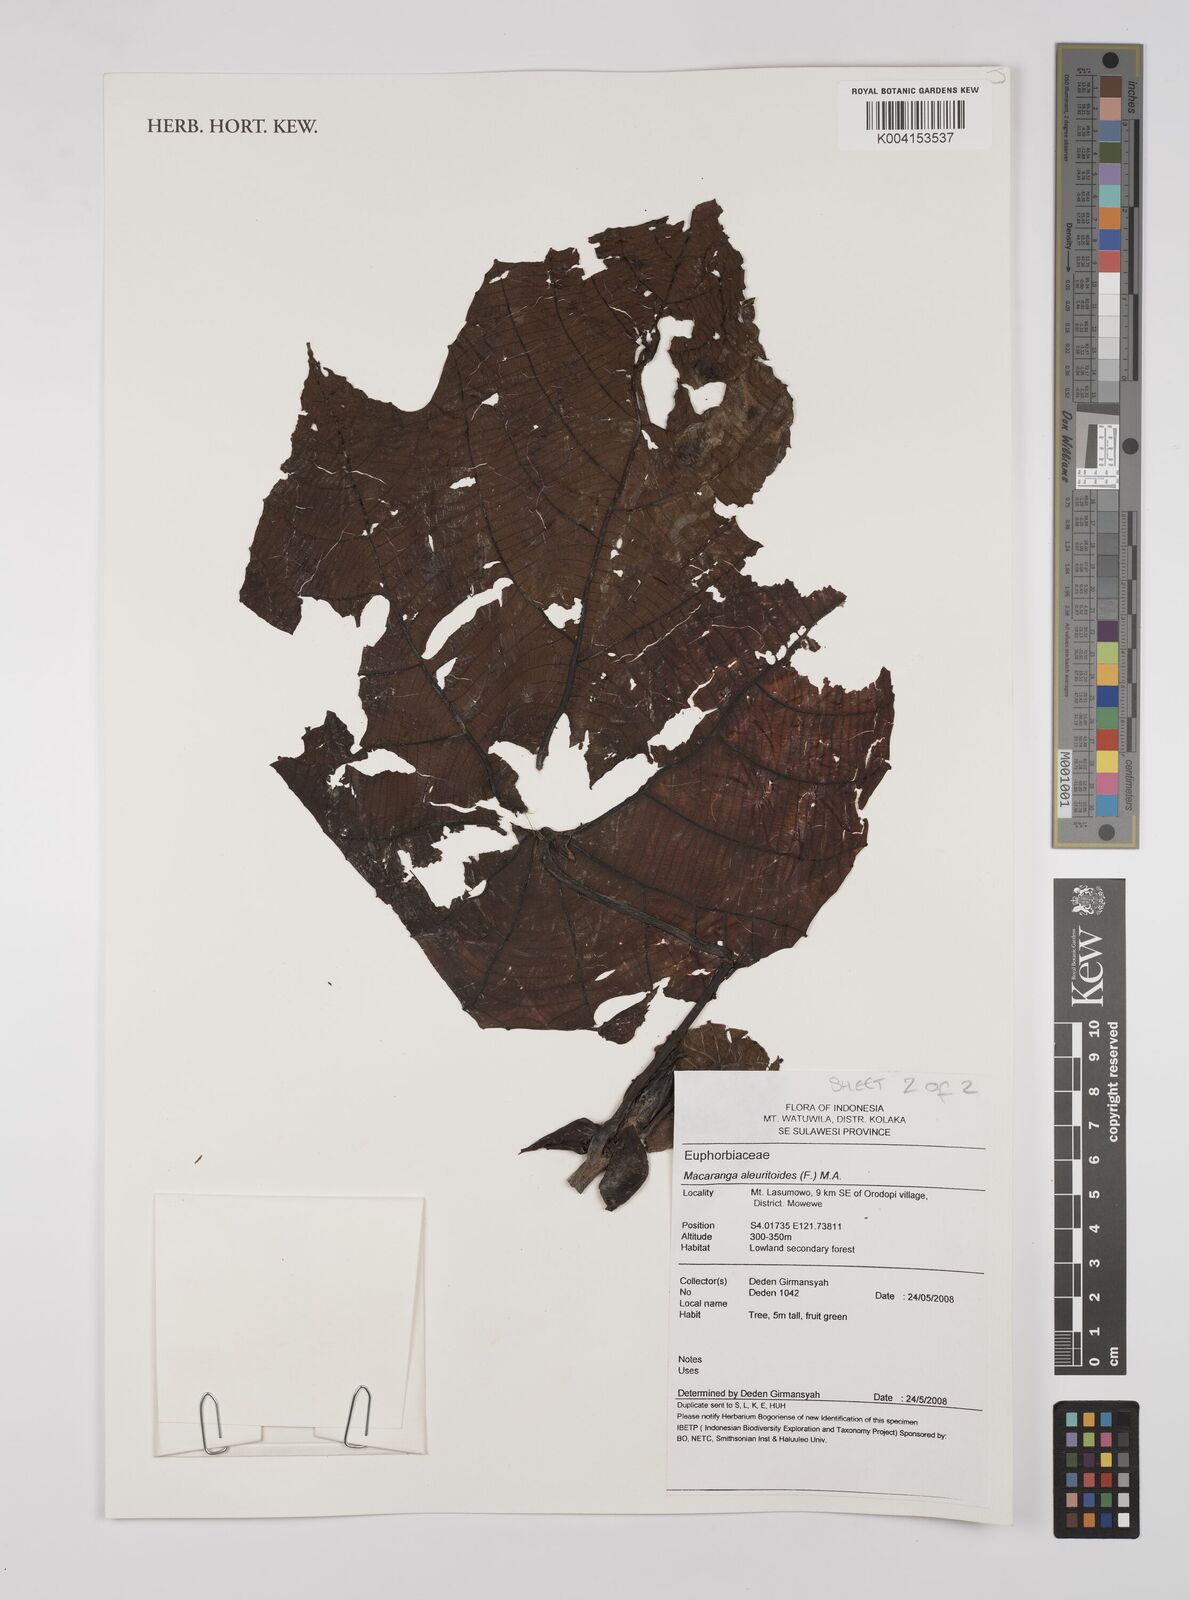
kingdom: Plantae
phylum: Tracheophyta
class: Magnoliopsida
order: Malpighiales
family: Euphorbiaceae
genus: Macaranga
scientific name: Macaranga aleuritoides
